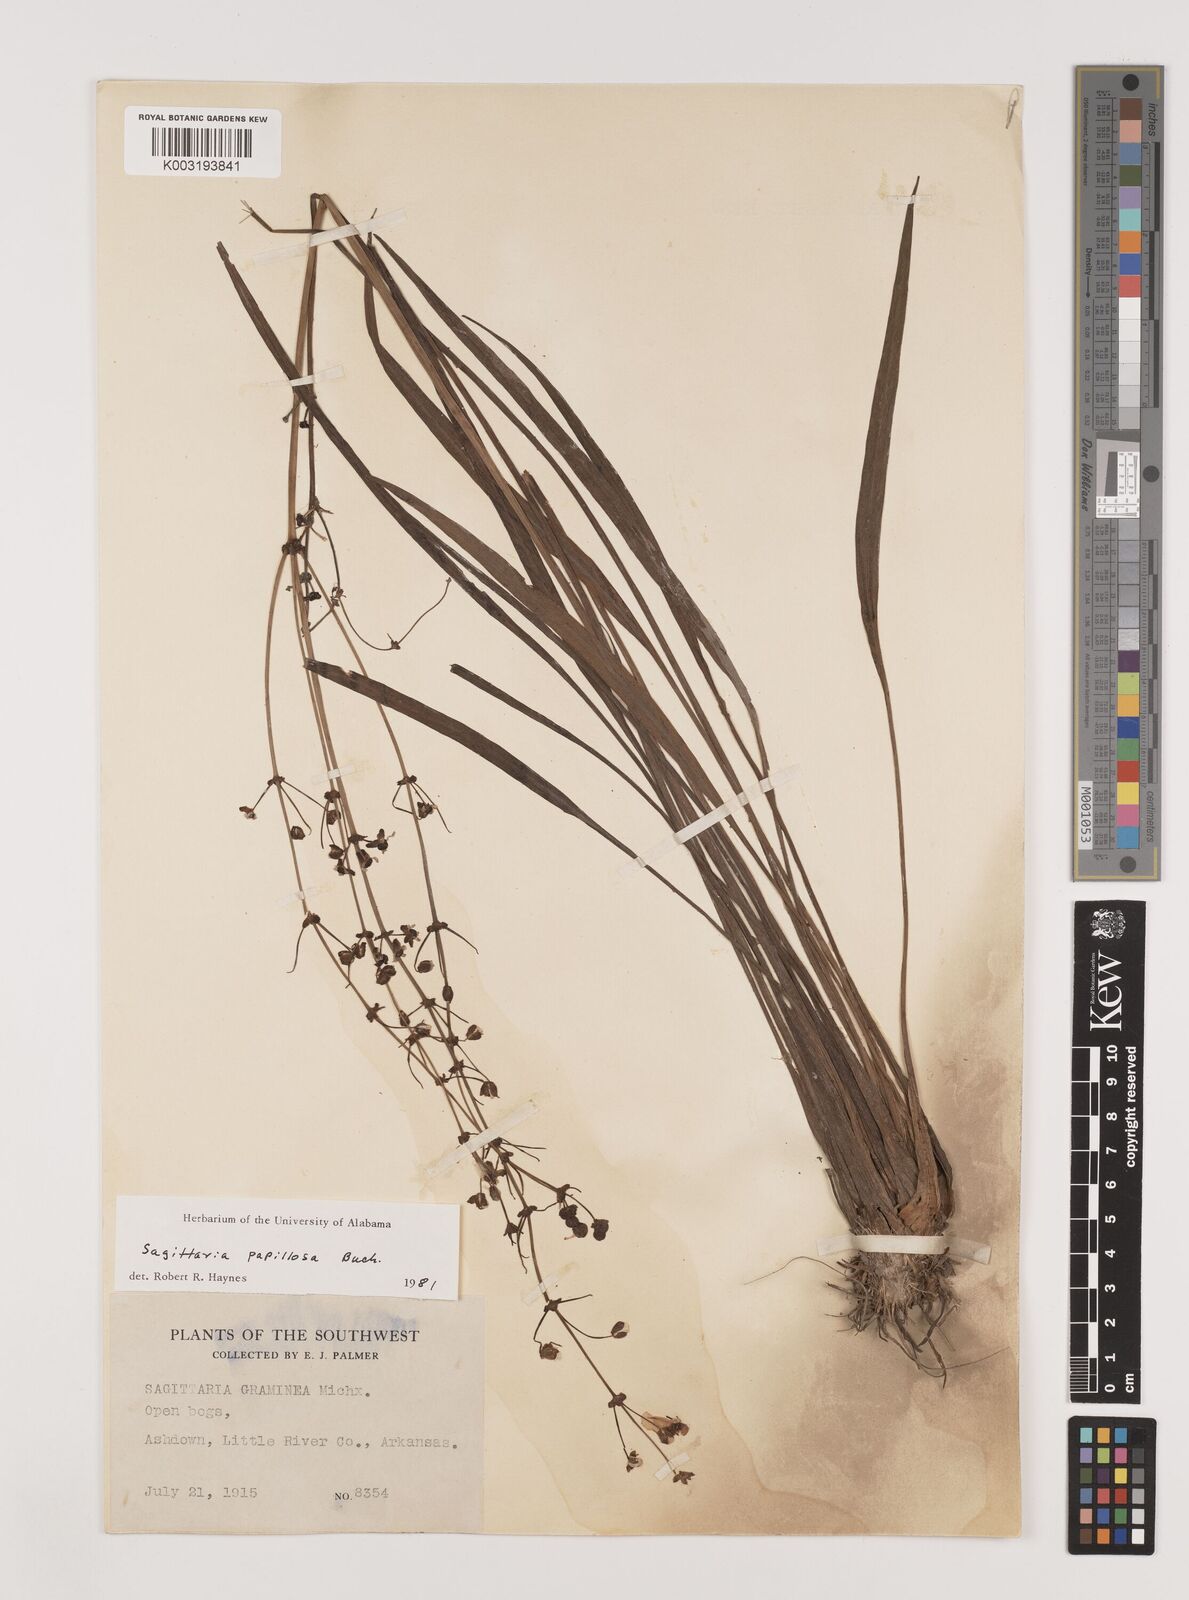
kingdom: Plantae
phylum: Tracheophyta
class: Liliopsida
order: Alismatales
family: Alismataceae
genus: Sagittaria
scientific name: Sagittaria papillosa
